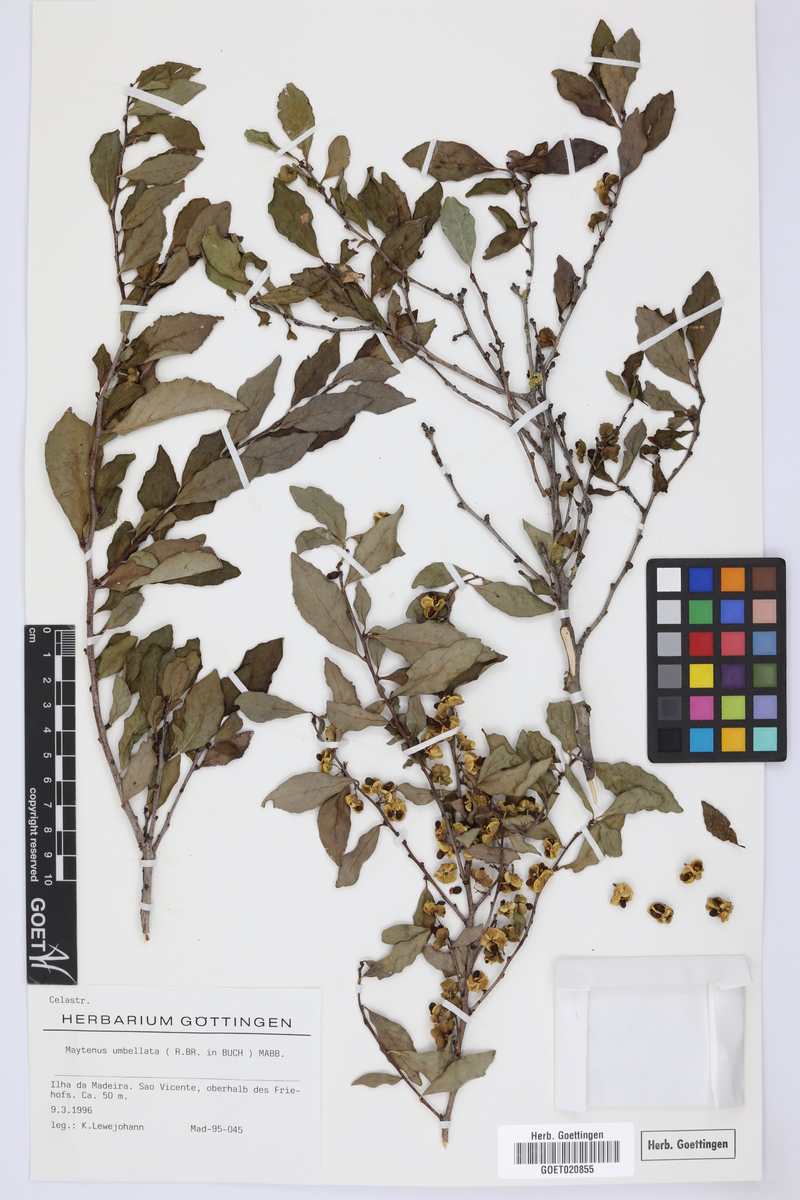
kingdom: Plantae
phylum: Tracheophyta
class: Magnoliopsida
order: Celastrales
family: Celastraceae
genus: Gymnosporia
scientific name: Gymnosporia dryandri
